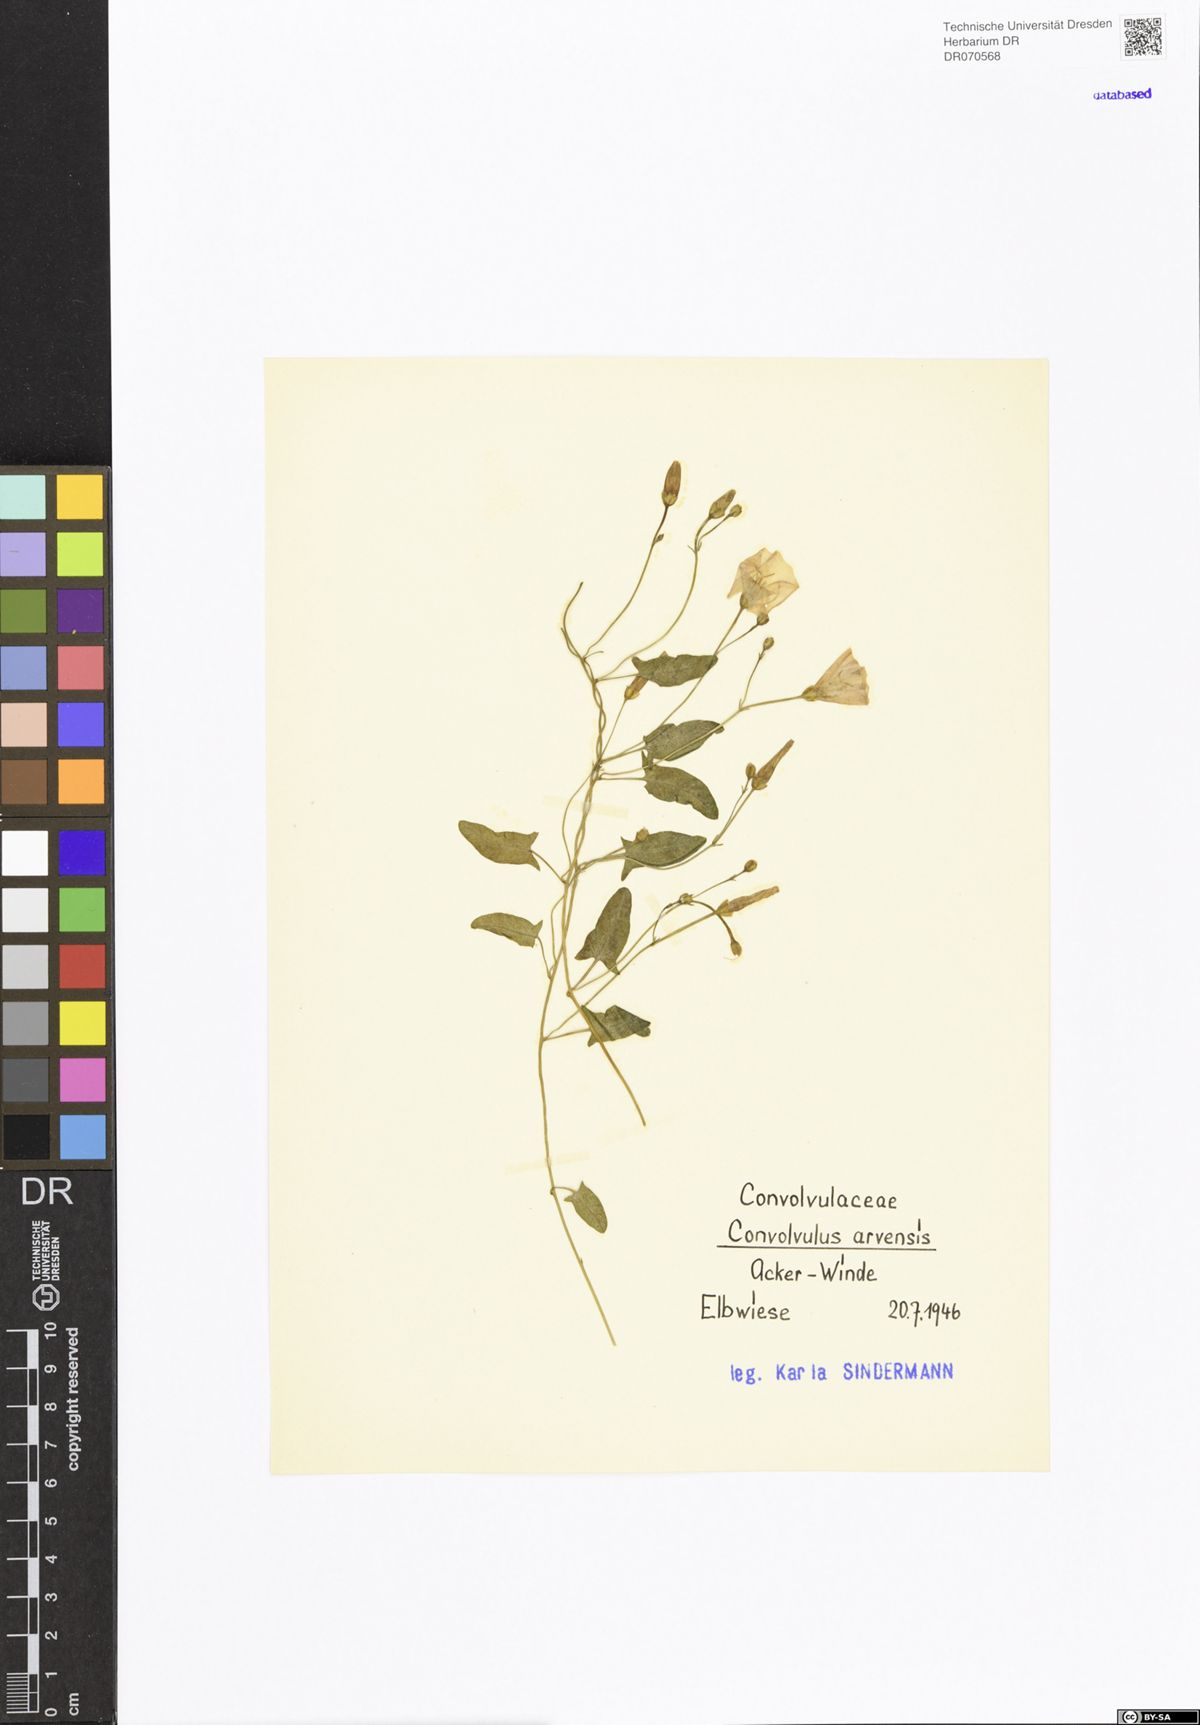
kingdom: Plantae
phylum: Tracheophyta
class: Magnoliopsida
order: Solanales
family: Convolvulaceae
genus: Convolvulus
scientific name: Convolvulus arvensis
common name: Field bindweed
